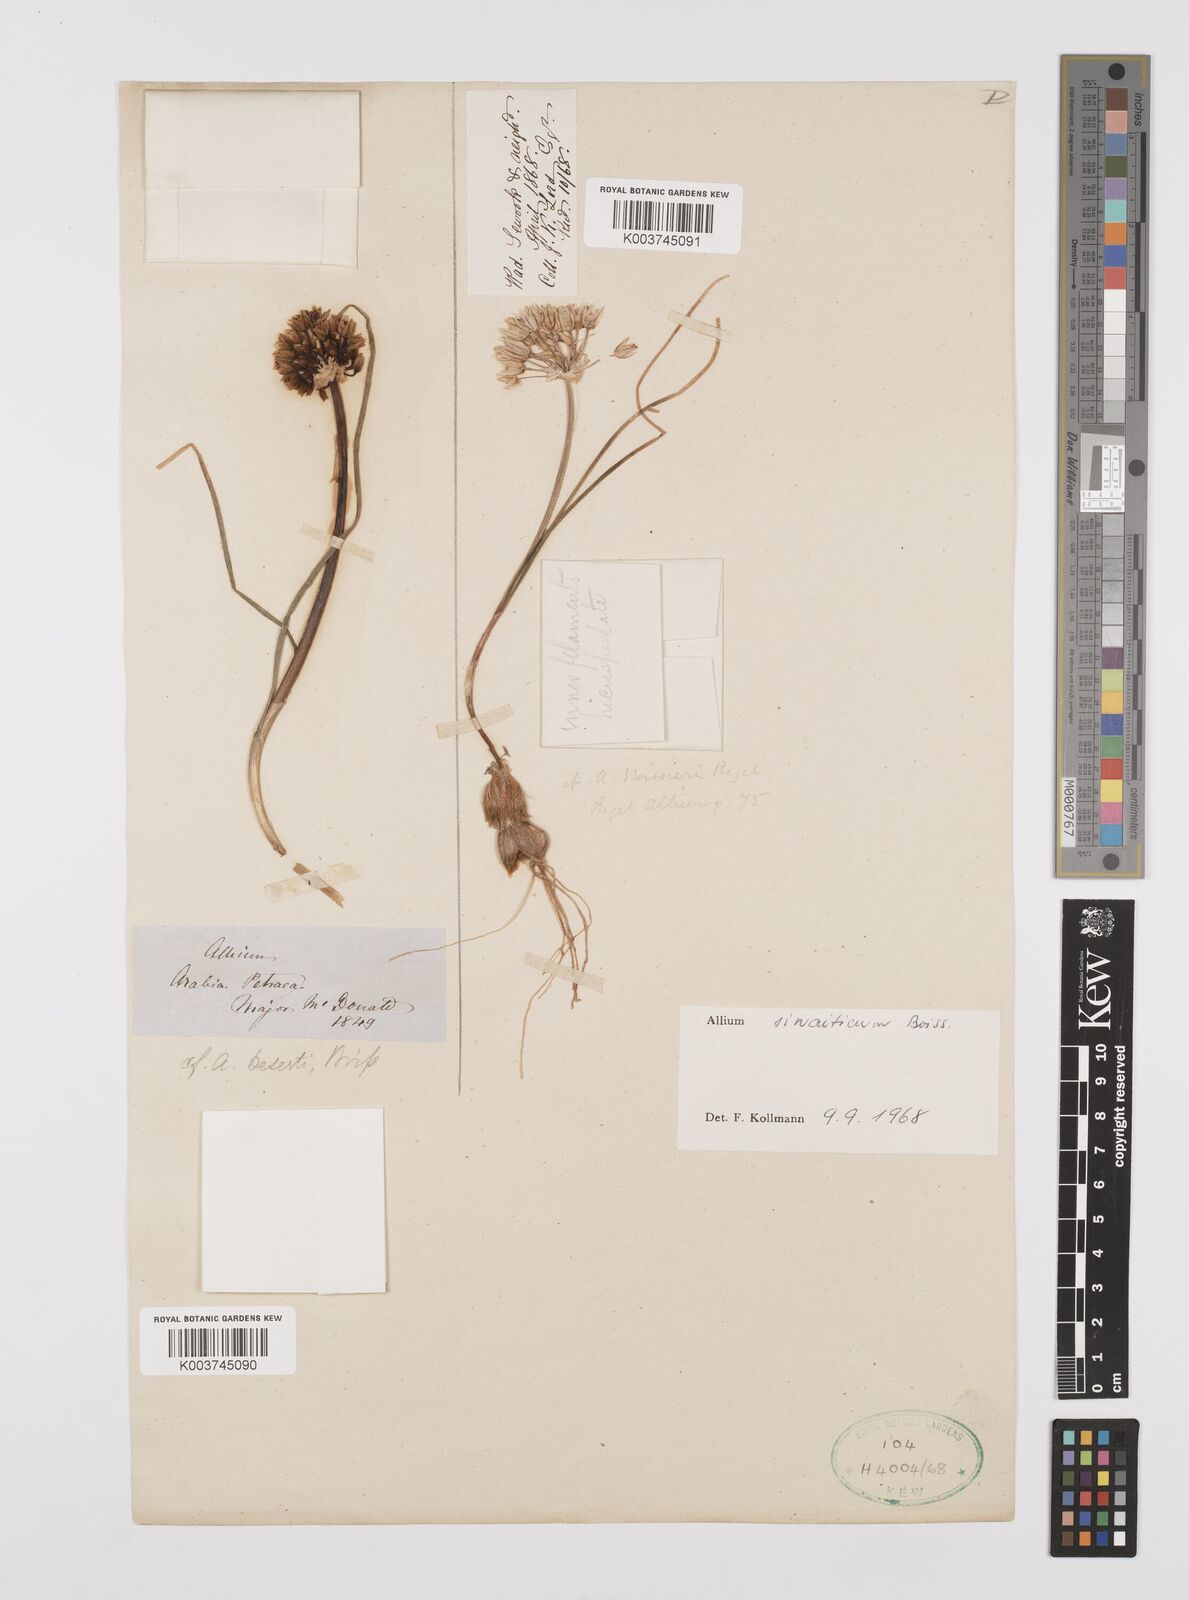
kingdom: Plantae
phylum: Tracheophyta
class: Liliopsida
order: Asparagales
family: Amaryllidaceae
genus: Allium
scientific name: Allium sinaiticum
